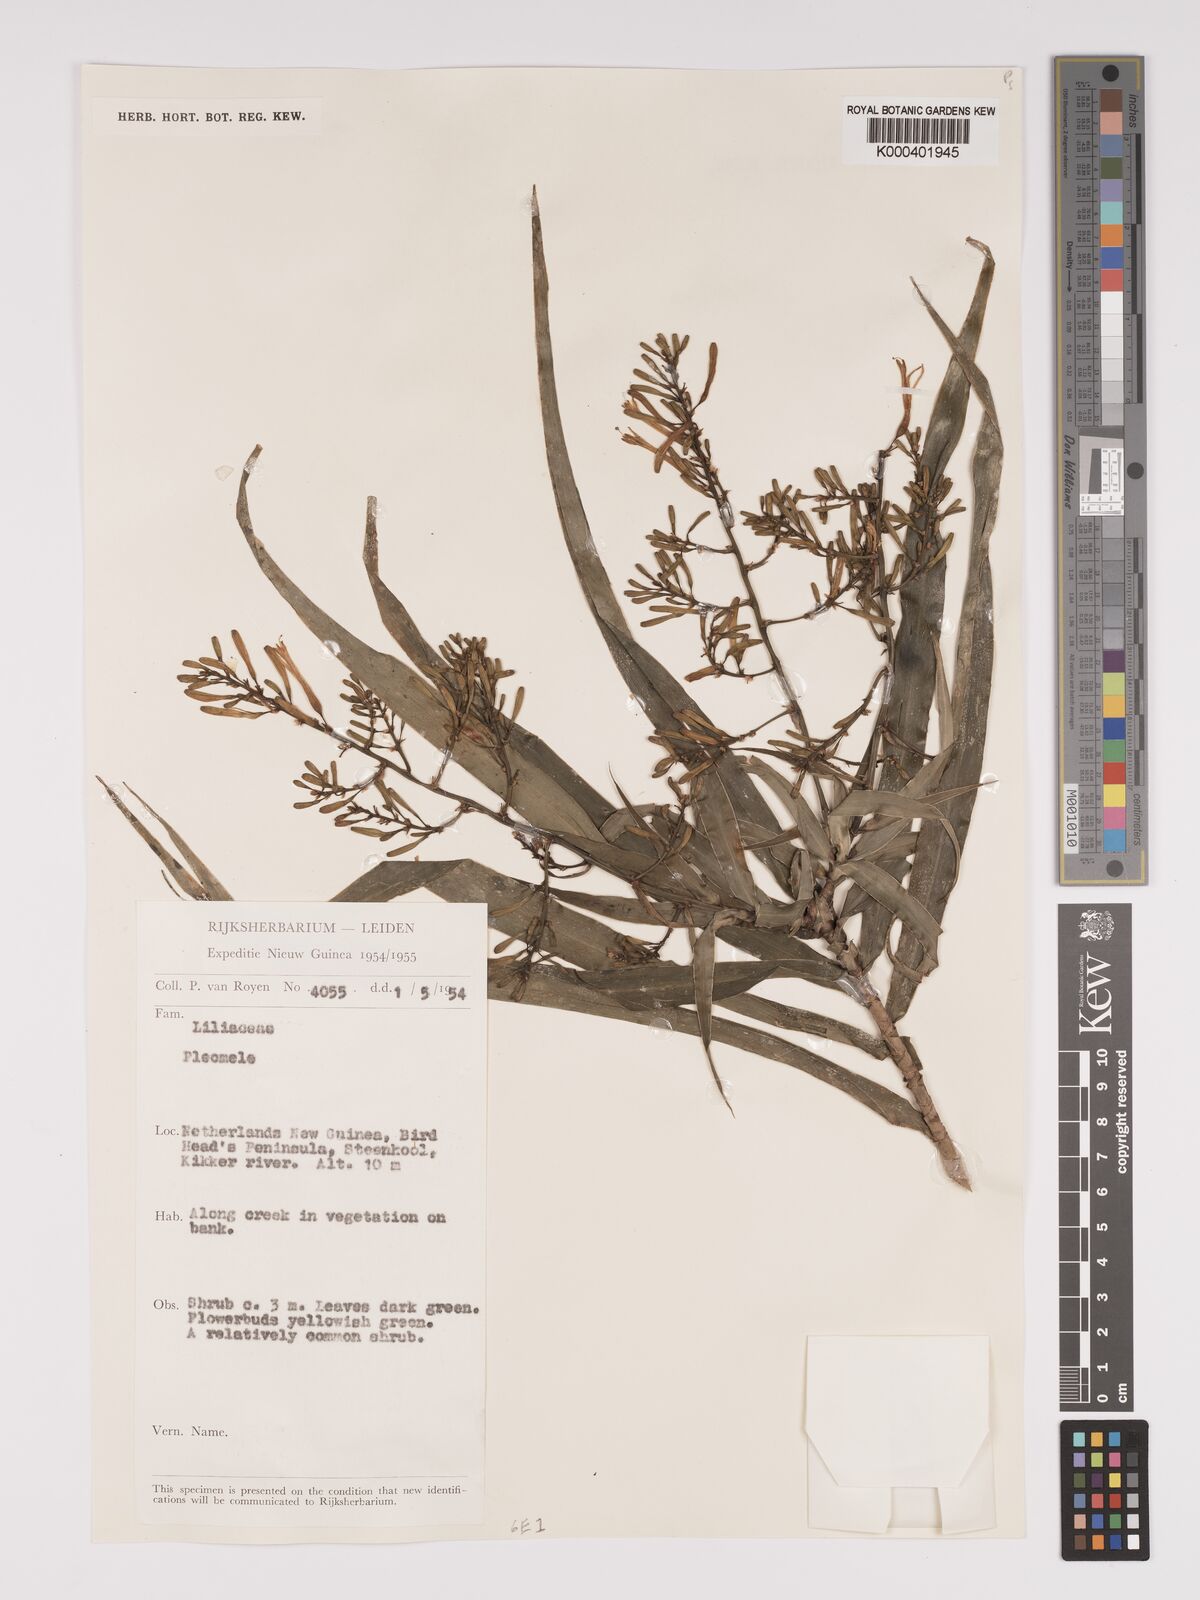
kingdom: Plantae
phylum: Tracheophyta
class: Liliopsida
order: Asparagales
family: Asparagaceae
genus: Dracaena
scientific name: Dracaena angustifolia
